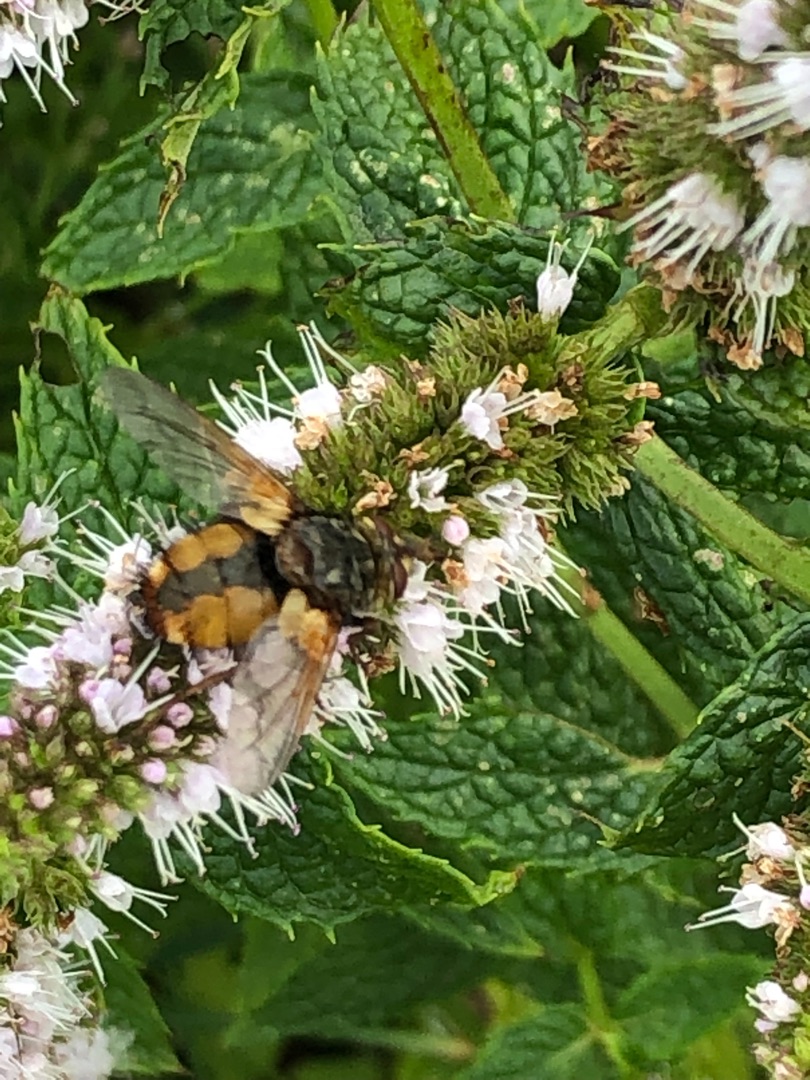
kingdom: Animalia
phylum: Arthropoda
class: Insecta
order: Diptera
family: Tachinidae
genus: Tachina
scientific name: Tachina fera
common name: Mellemfluen oskar
